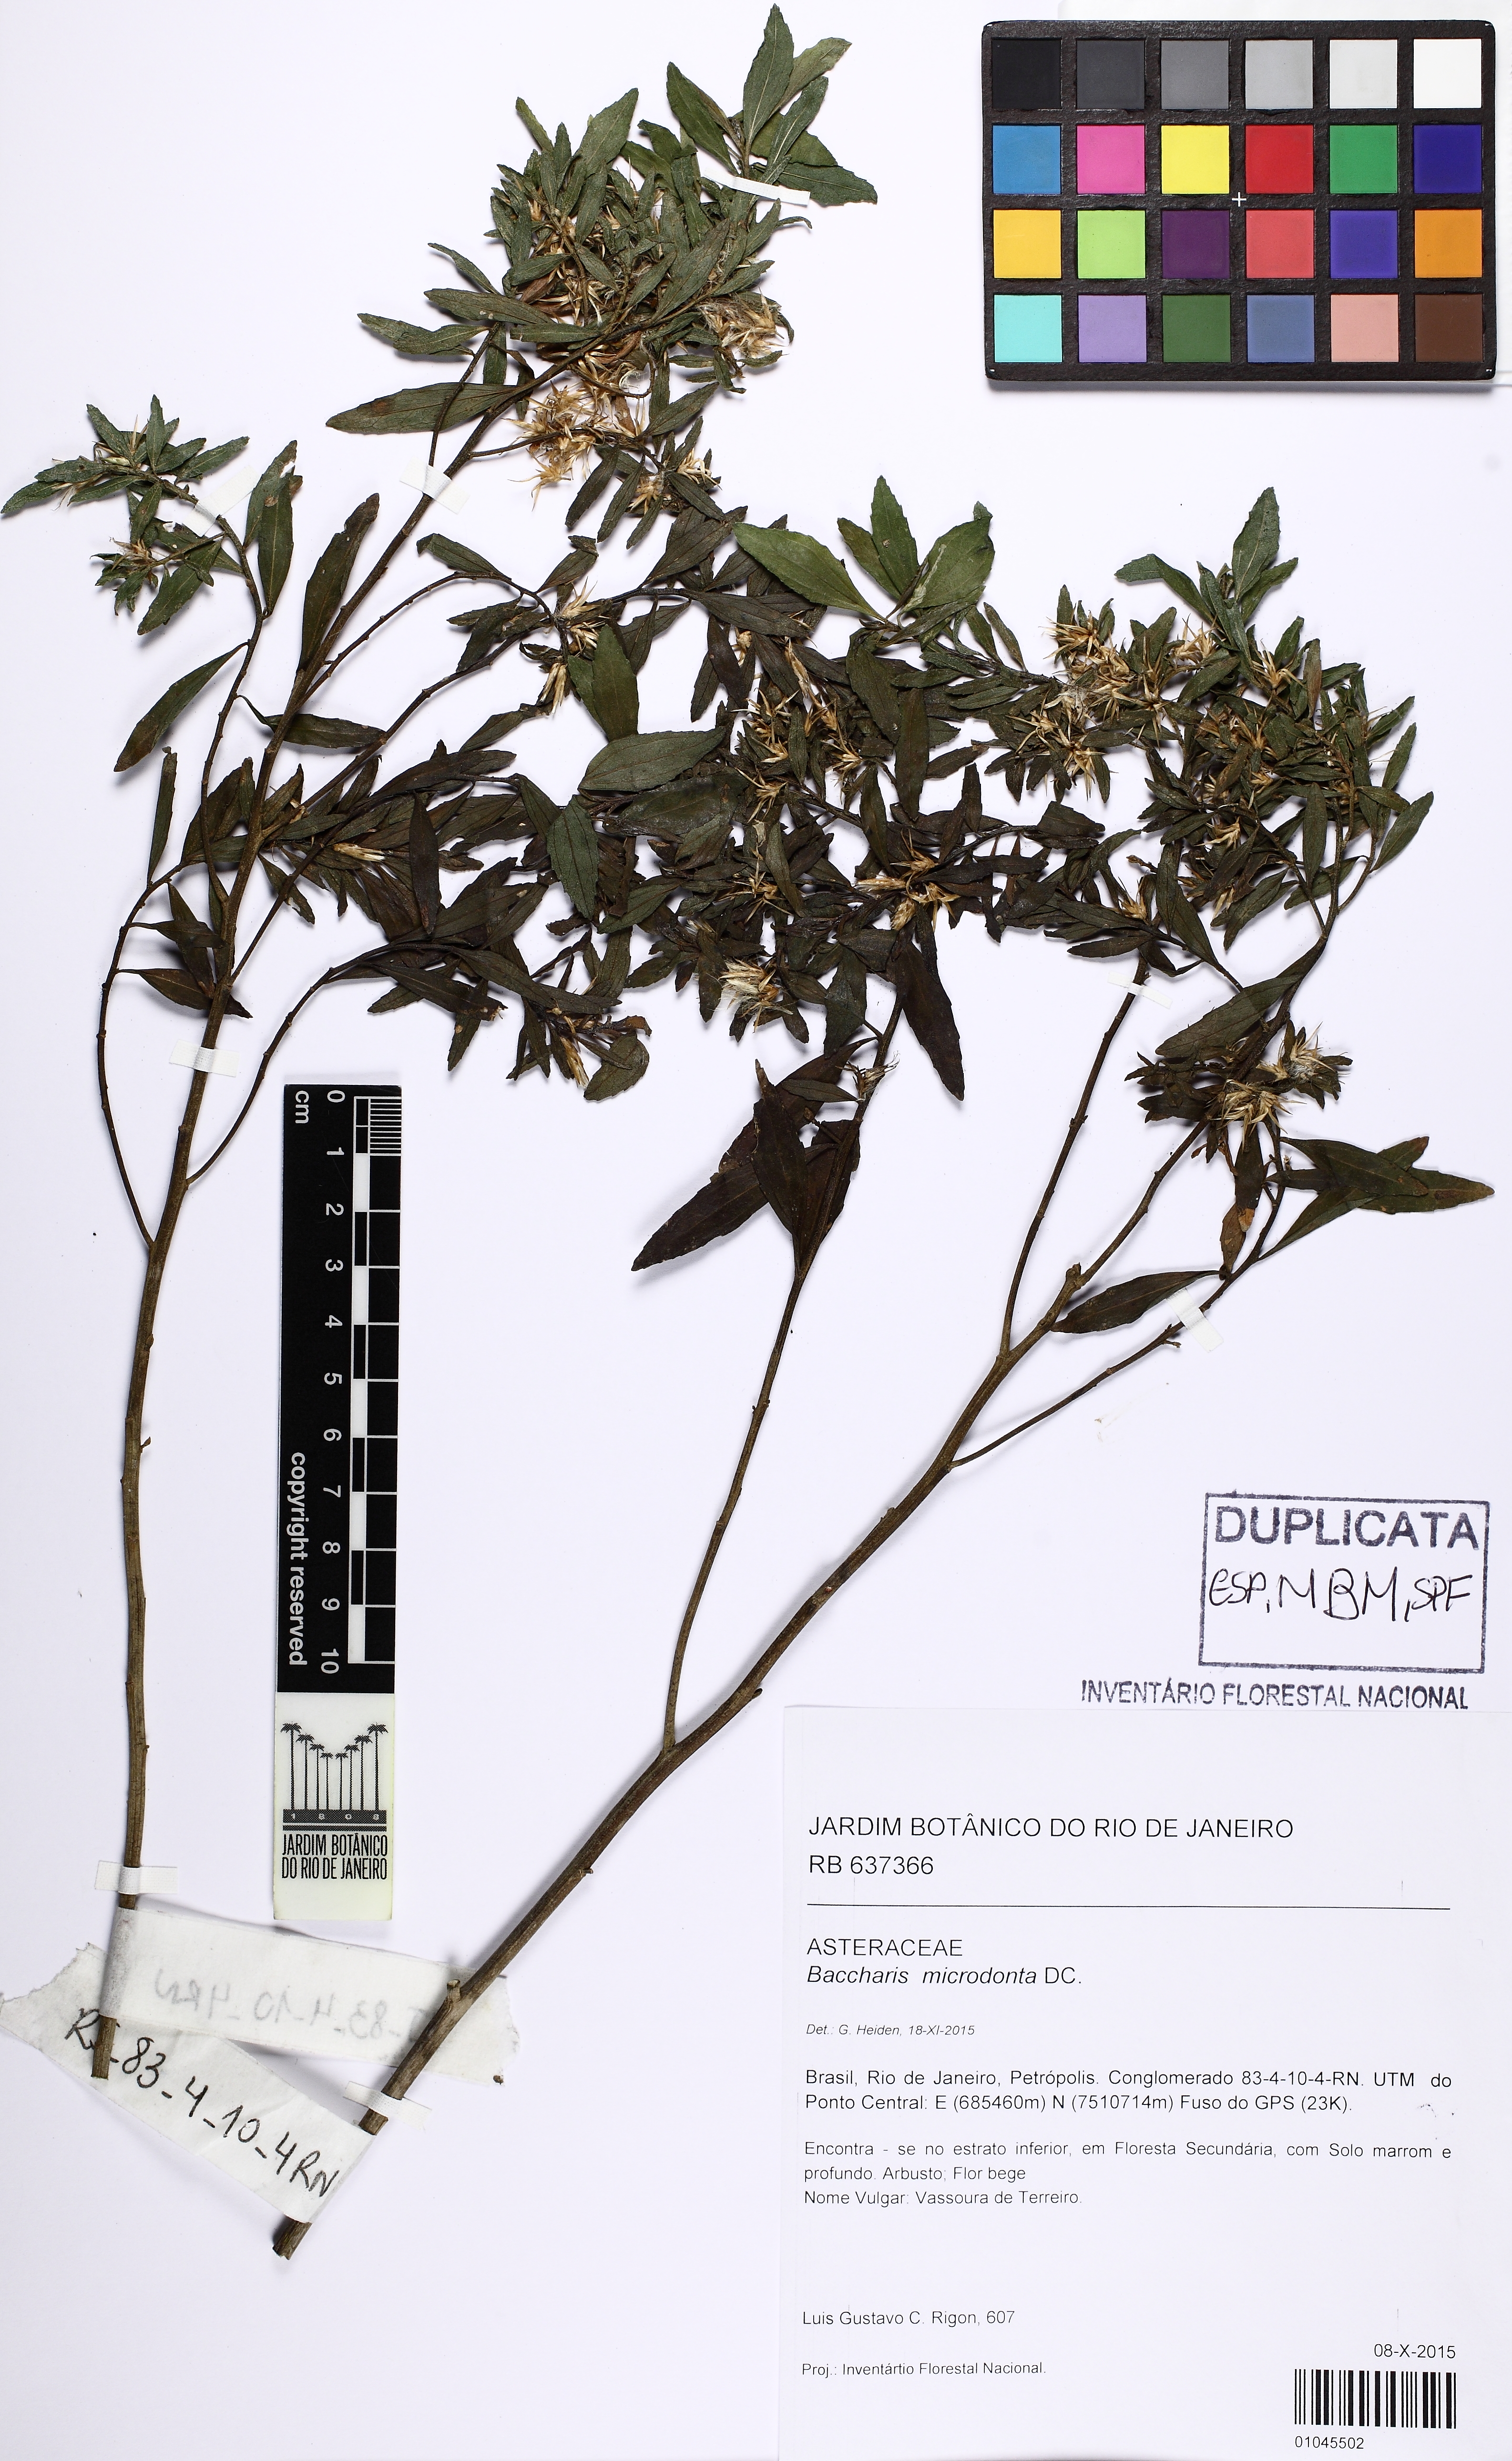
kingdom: Plantae
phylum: Tracheophyta
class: Magnoliopsida
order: Asterales
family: Asteraceae
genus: Baccharis
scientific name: Baccharis microdonta
